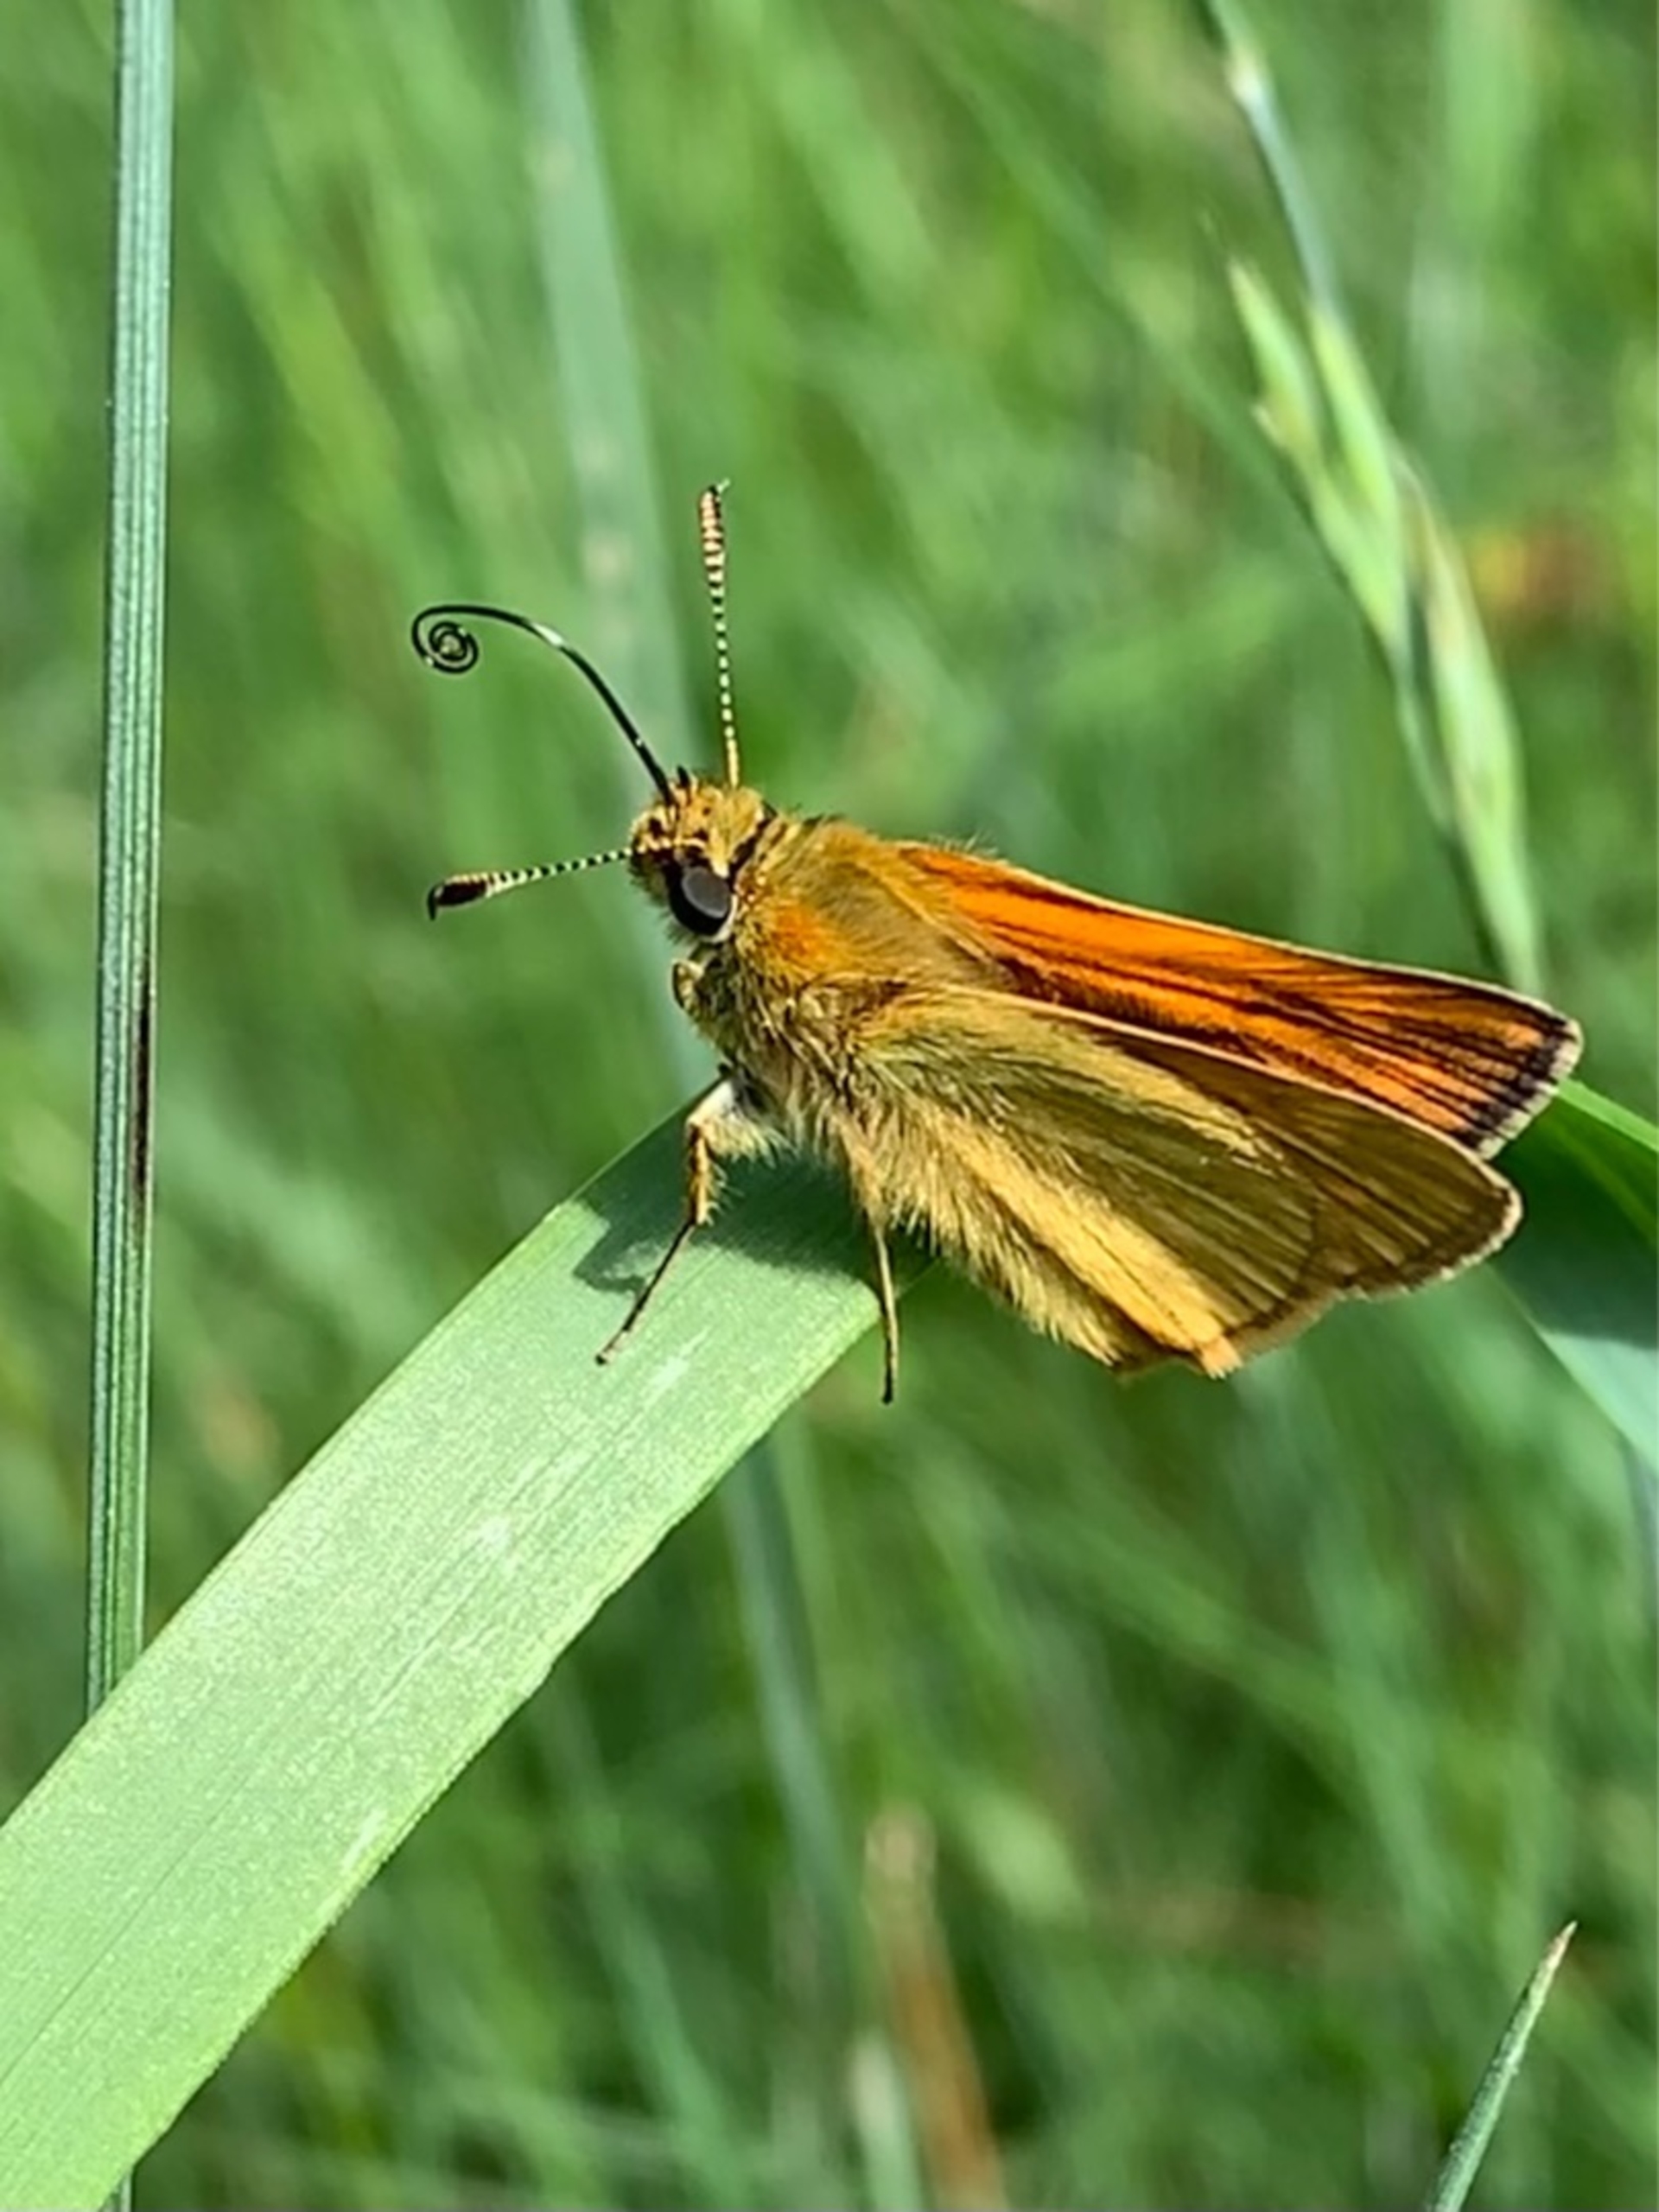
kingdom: Animalia
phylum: Arthropoda
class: Insecta
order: Lepidoptera
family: Hesperiidae
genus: Ochlodes
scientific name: Ochlodes venata
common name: Stor bredpande
